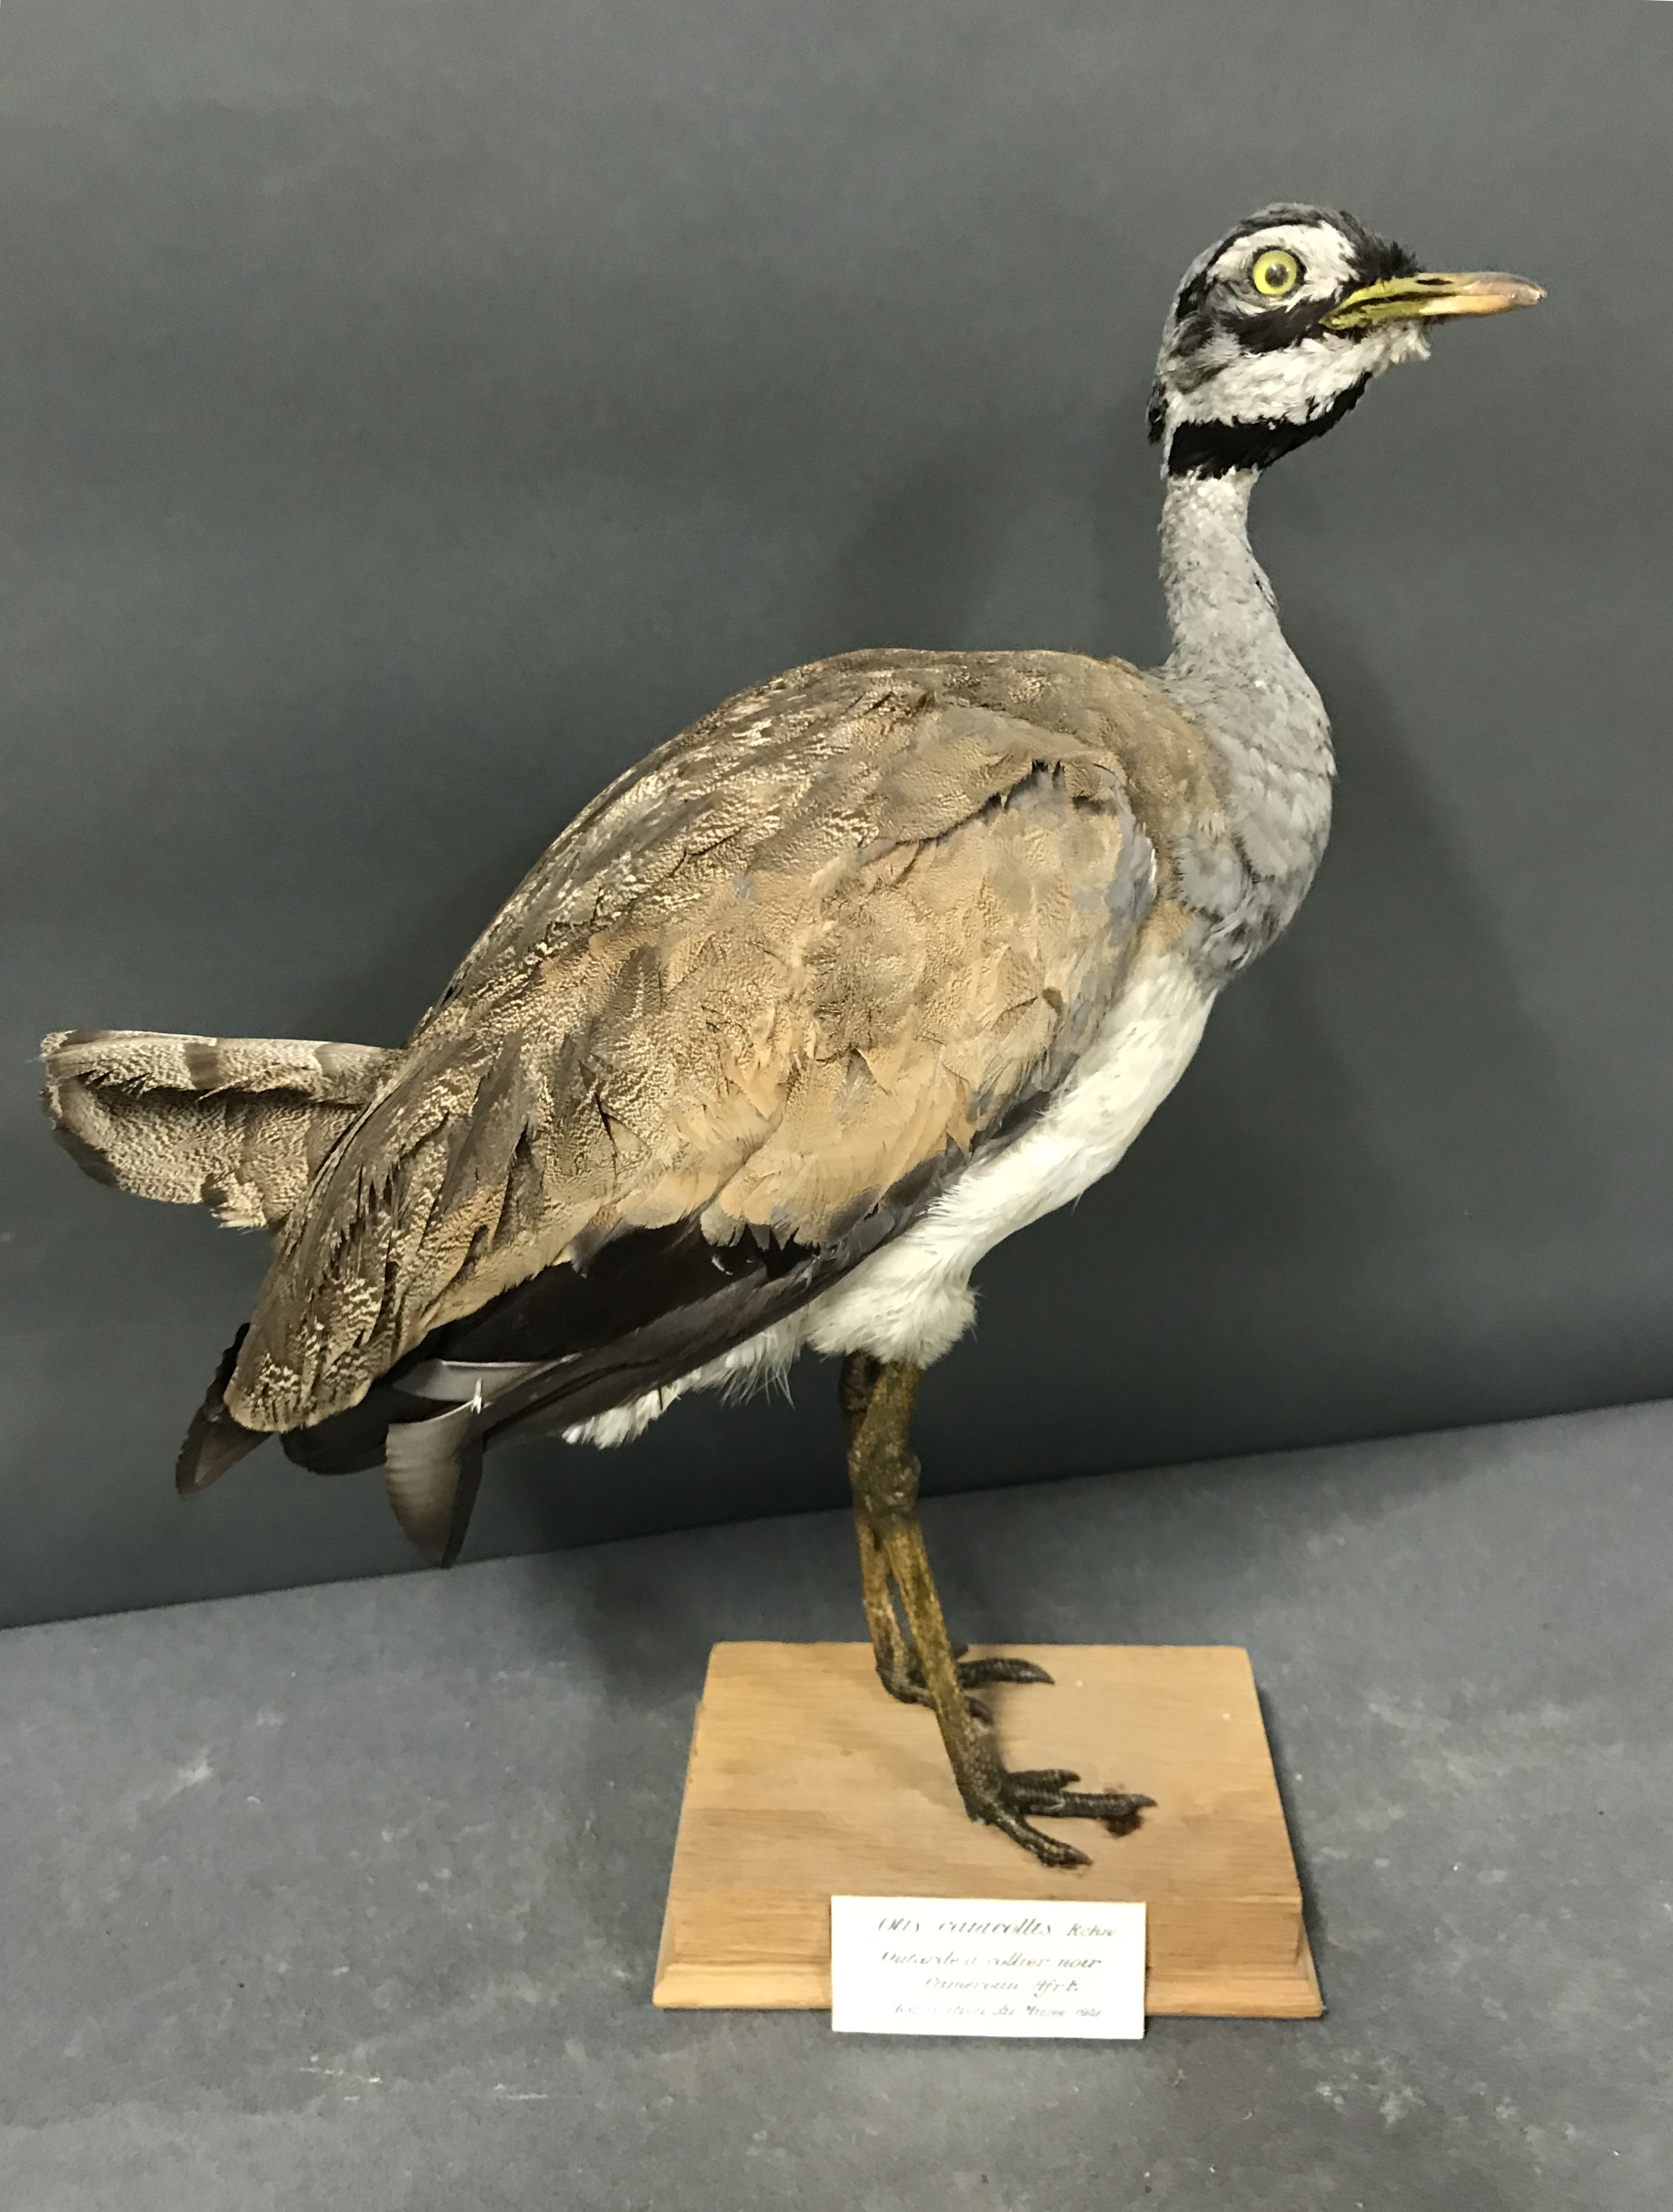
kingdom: Animalia
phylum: Chordata
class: Aves
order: Otidiformes
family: Otididae
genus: Eupodotis
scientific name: Eupodotis senegalensis
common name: White-bellied bustard
